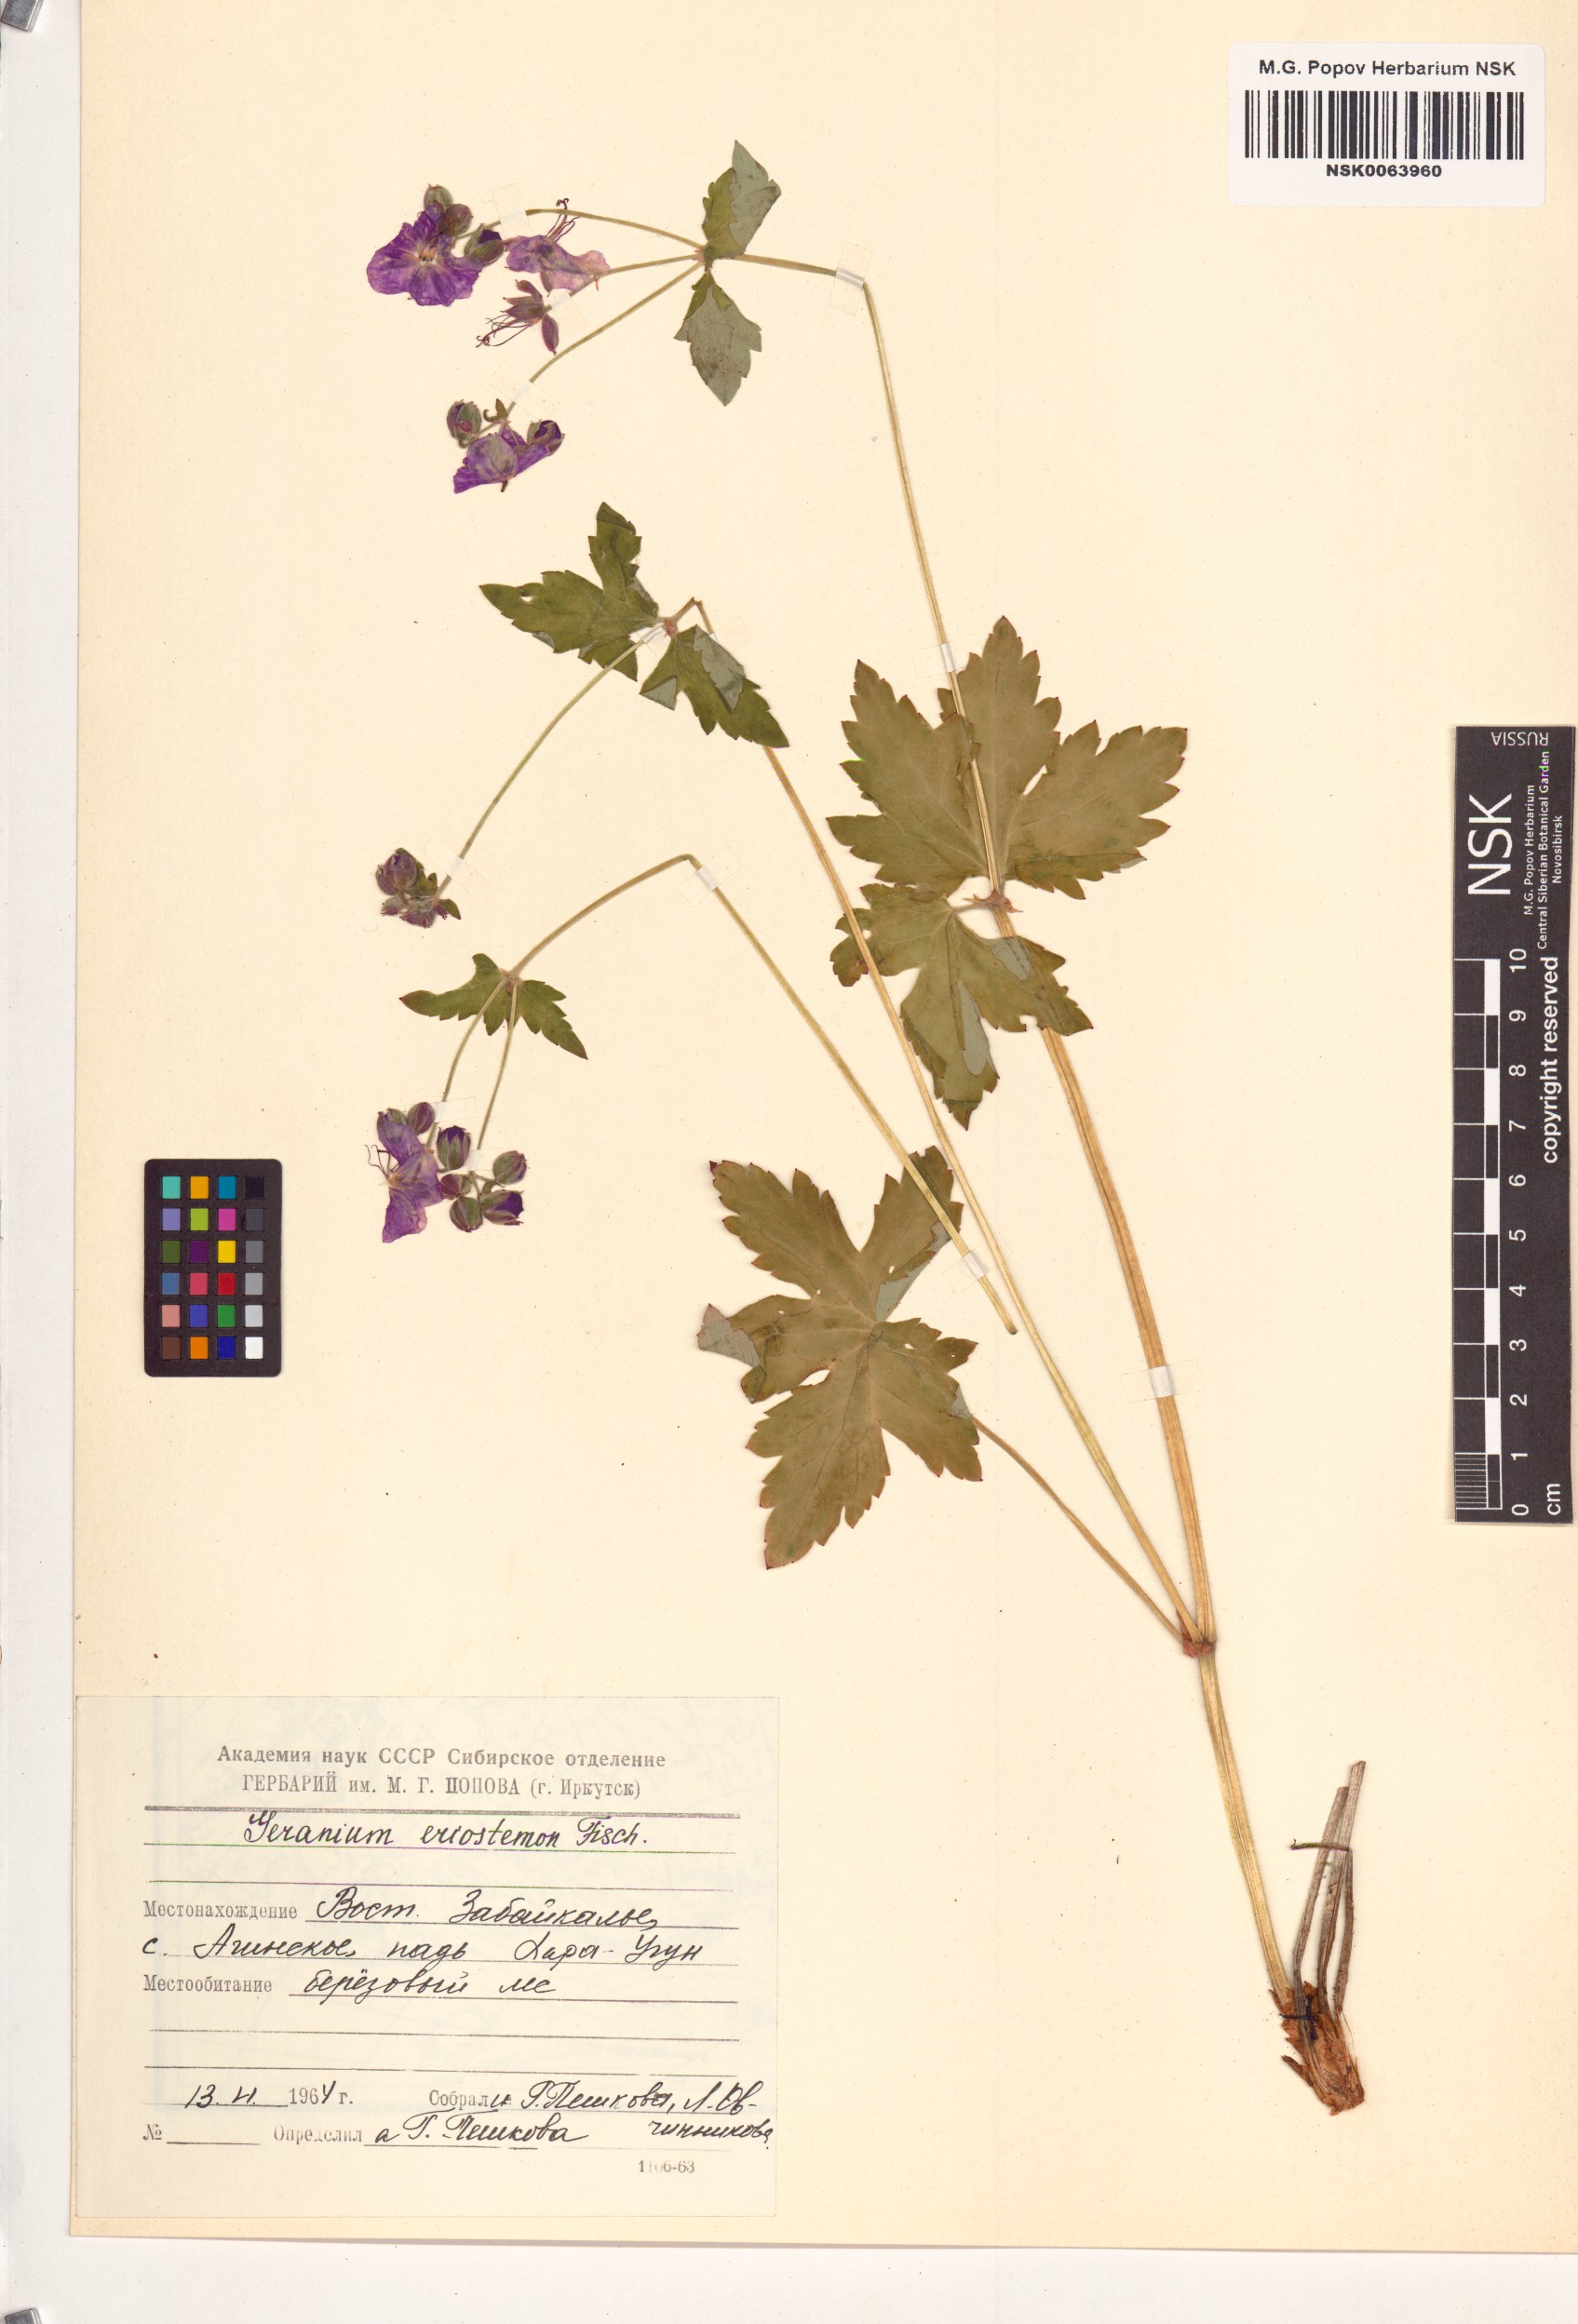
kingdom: Plantae
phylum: Tracheophyta
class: Magnoliopsida
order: Geraniales
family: Geraniaceae
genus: Geranium
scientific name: Geranium platyanthum
